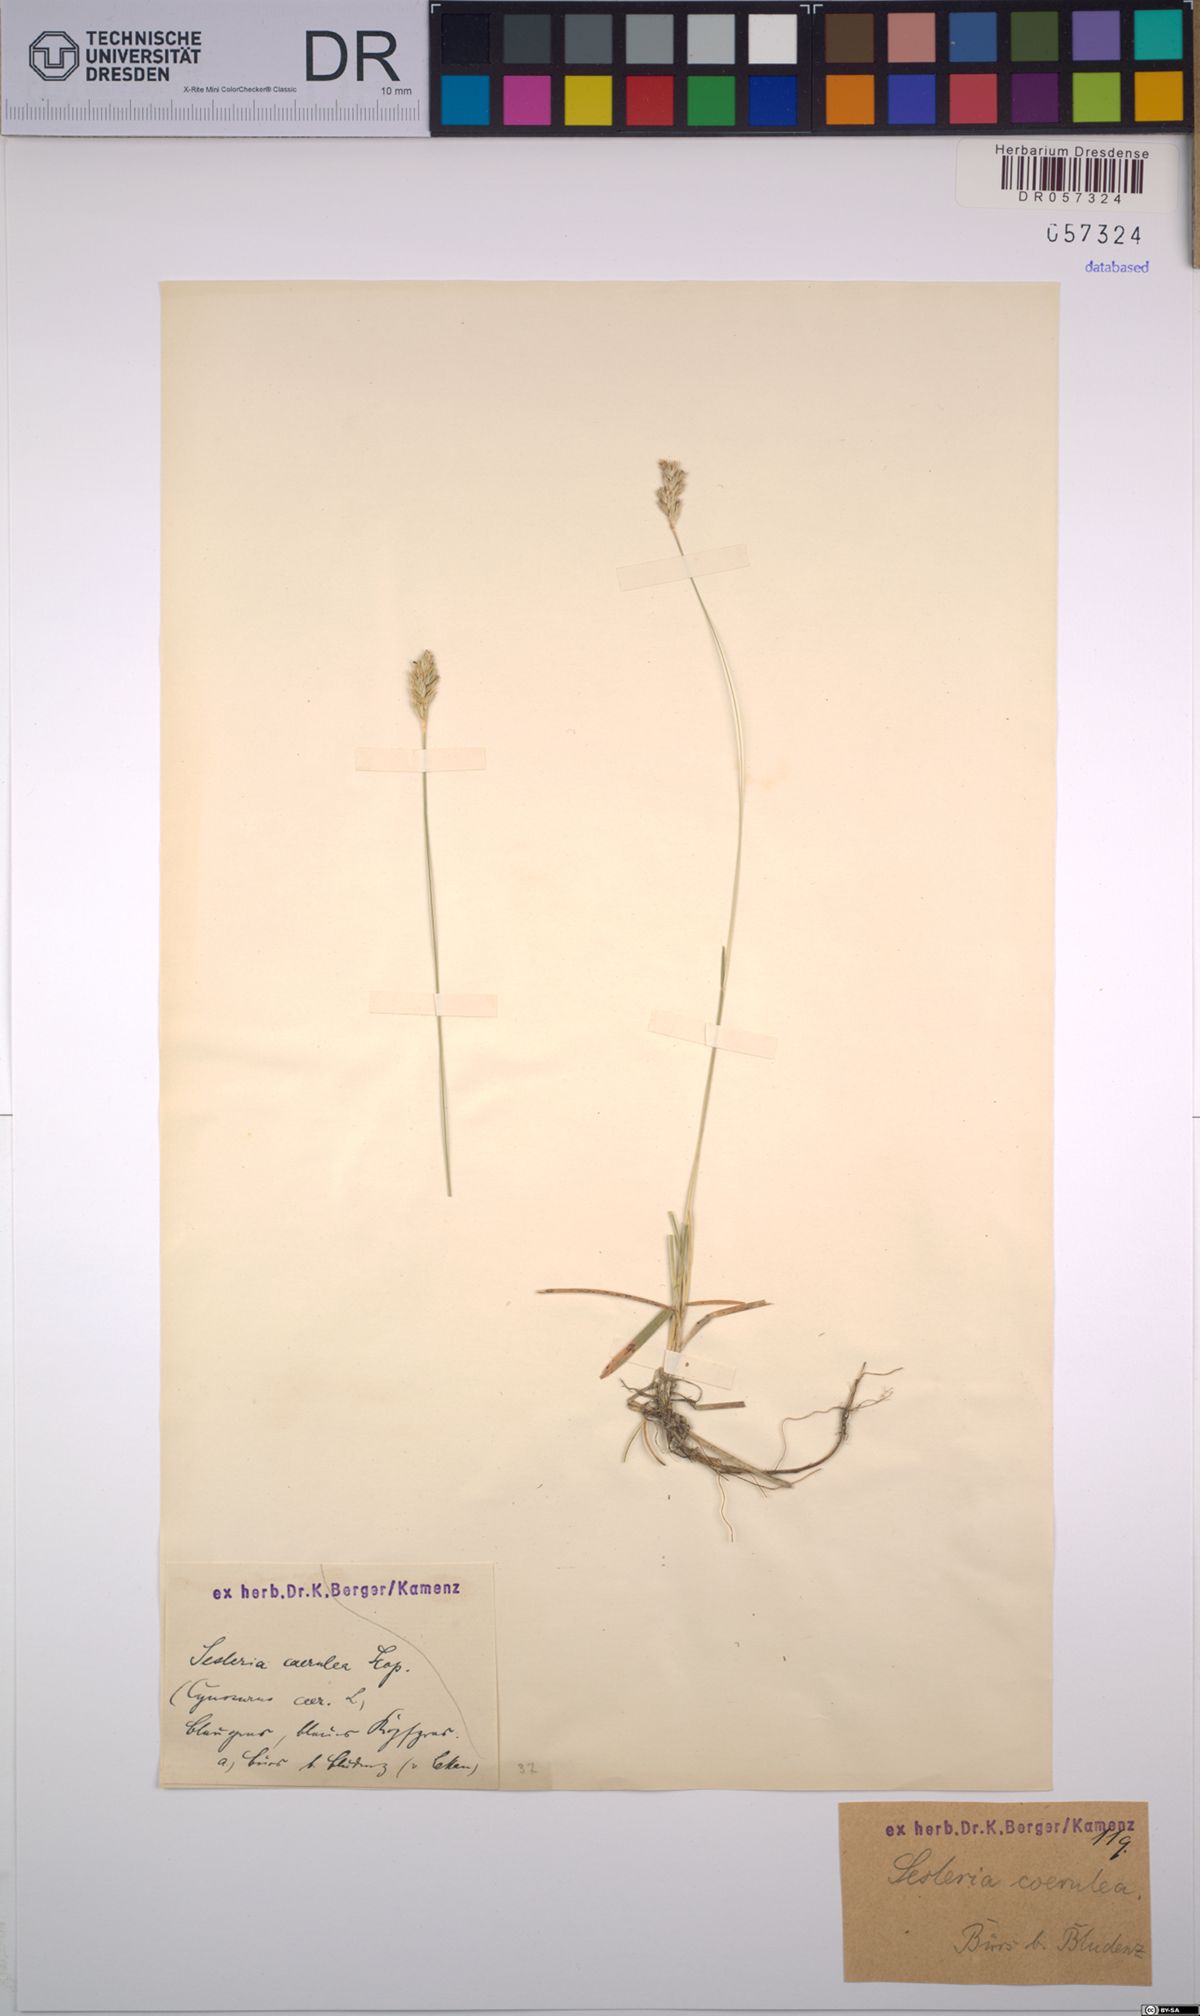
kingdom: Plantae
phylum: Tracheophyta
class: Liliopsida
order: Poales
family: Poaceae
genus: Sesleria
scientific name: Sesleria caerulea
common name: Blue moor-grass
